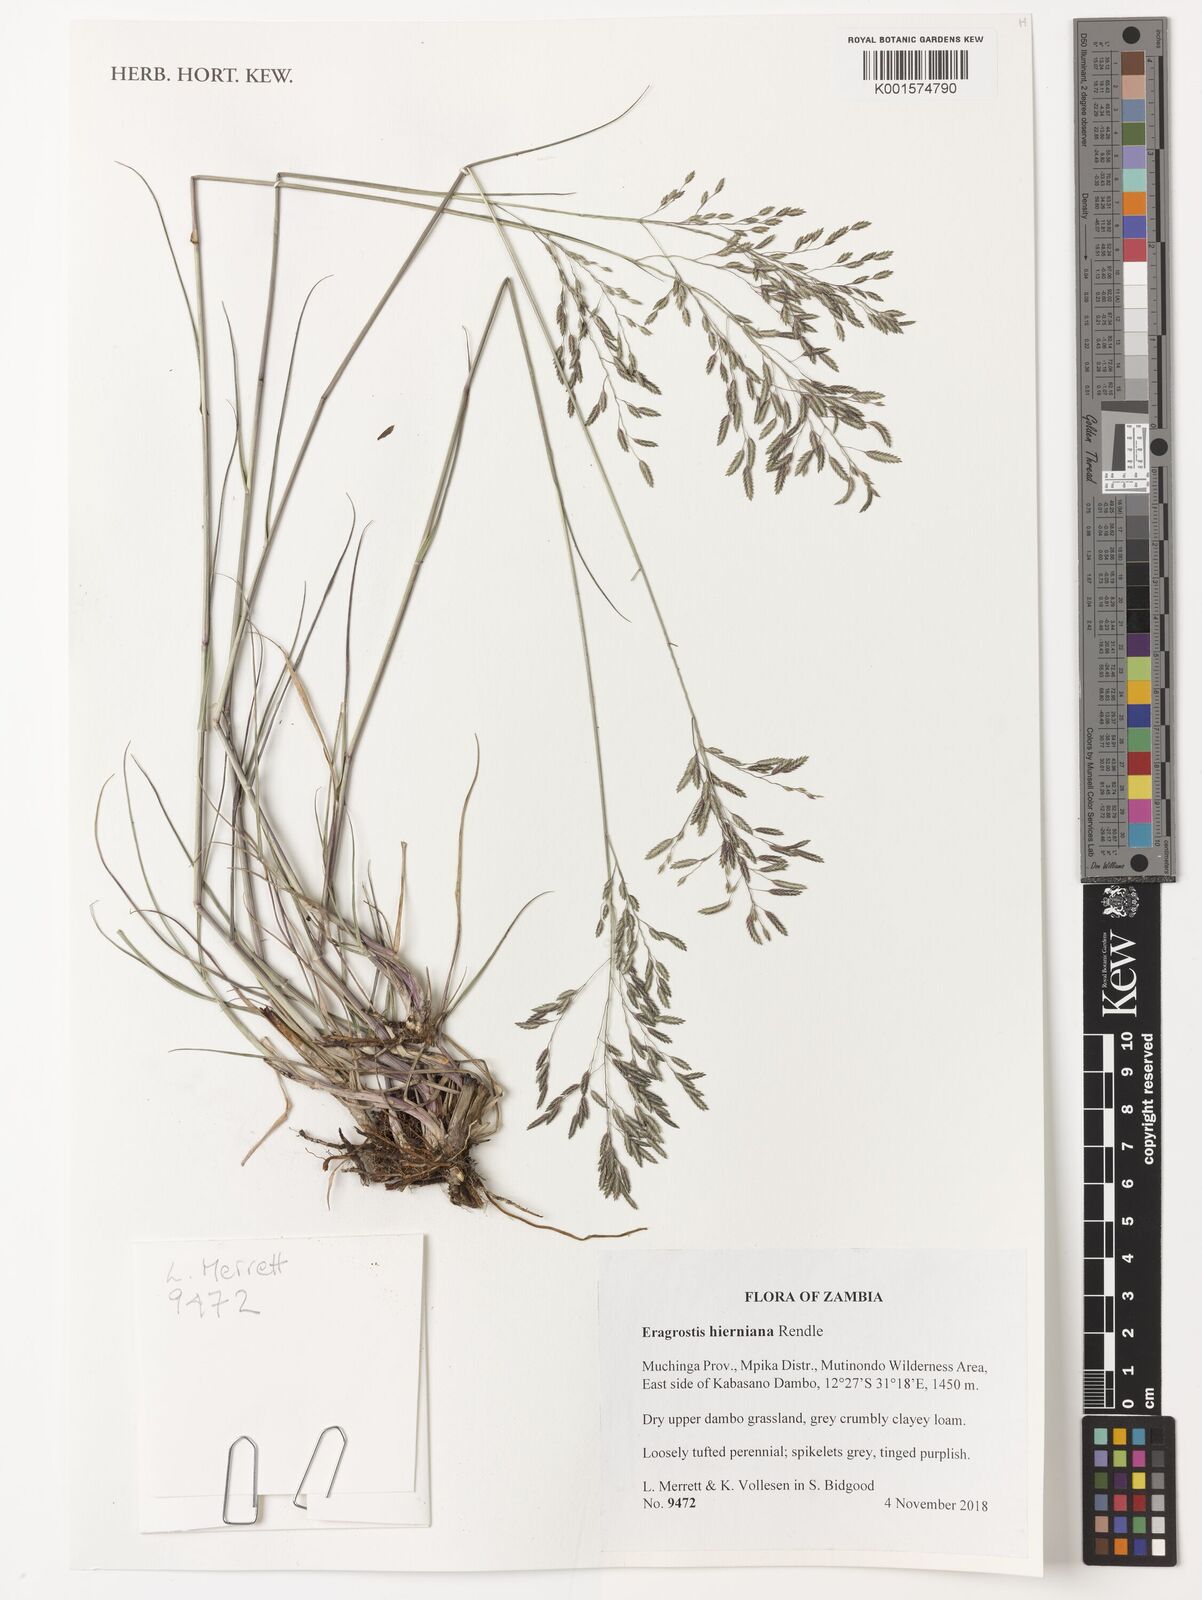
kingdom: Plantae
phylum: Tracheophyta
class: Liliopsida
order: Poales
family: Poaceae
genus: Eragrostis
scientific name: Eragrostis hierniana
